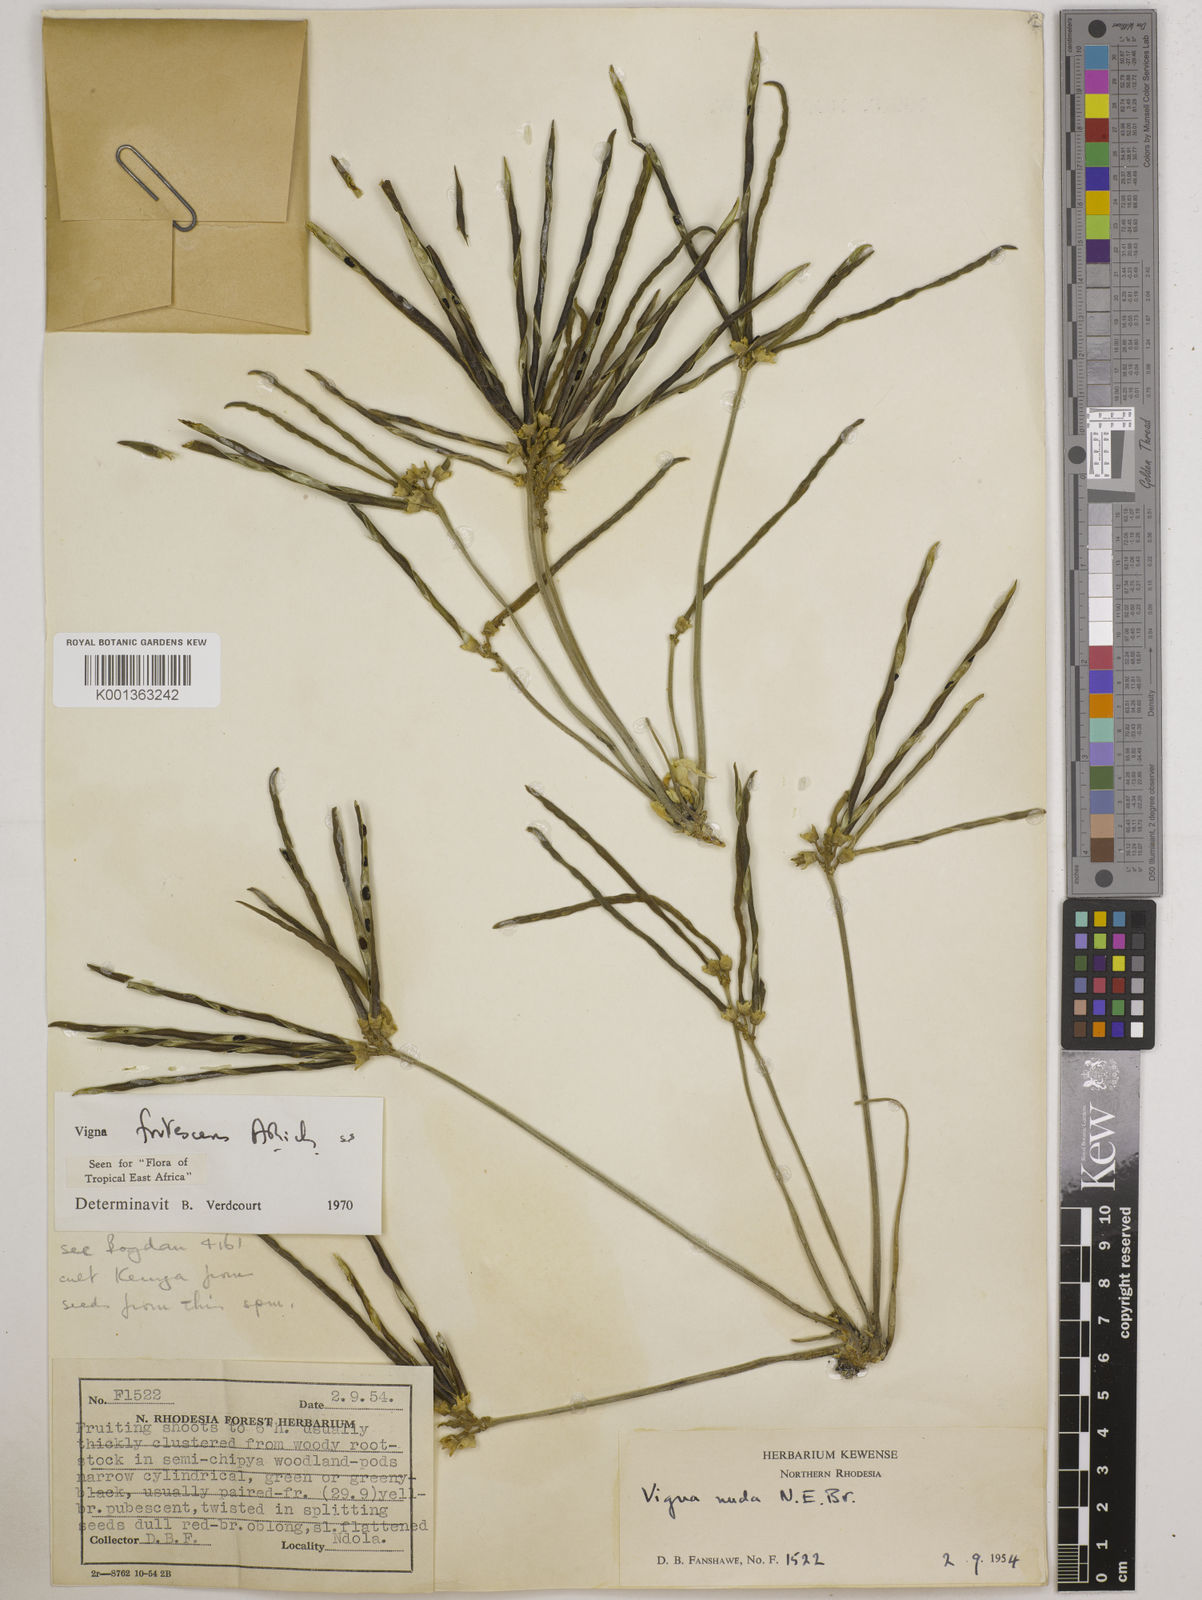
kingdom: Plantae
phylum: Tracheophyta
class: Magnoliopsida
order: Fabales
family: Fabaceae
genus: Vigna
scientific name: Vigna
